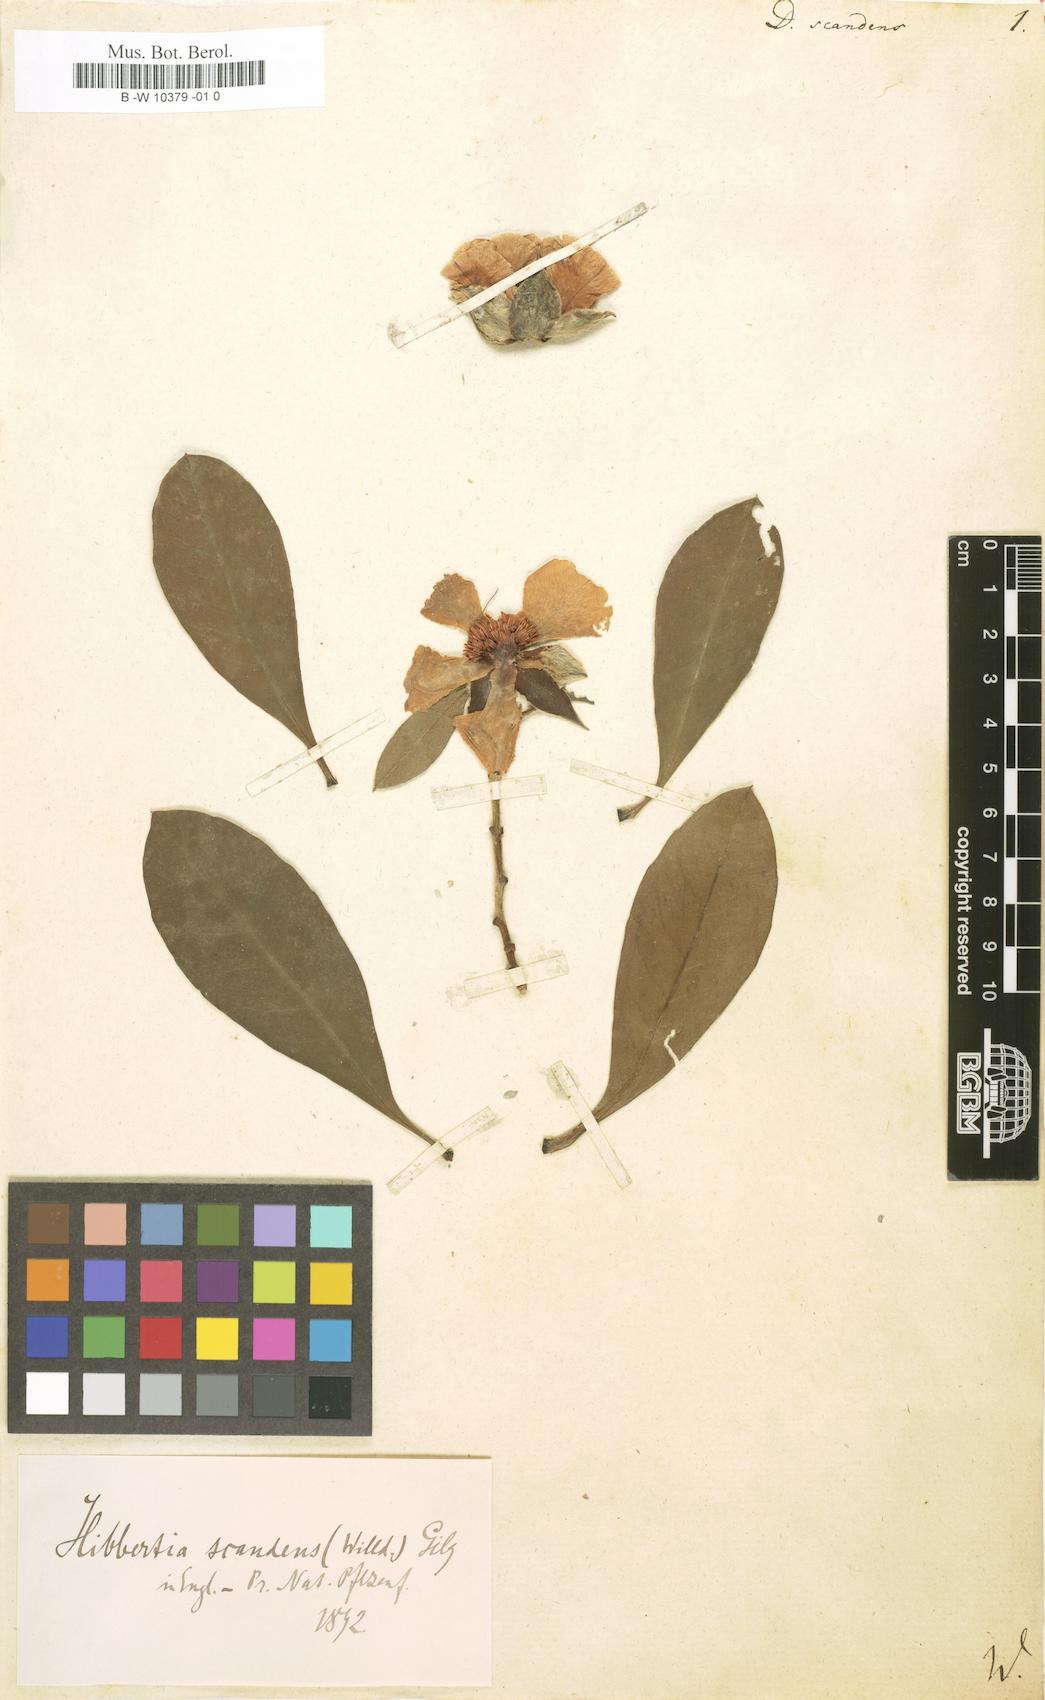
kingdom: Plantae
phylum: Tracheophyta
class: Magnoliopsida
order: Dilleniales
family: Dilleniaceae
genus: Hibbertia
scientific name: Hibbertia scandens
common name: Climbing guinea-flower
